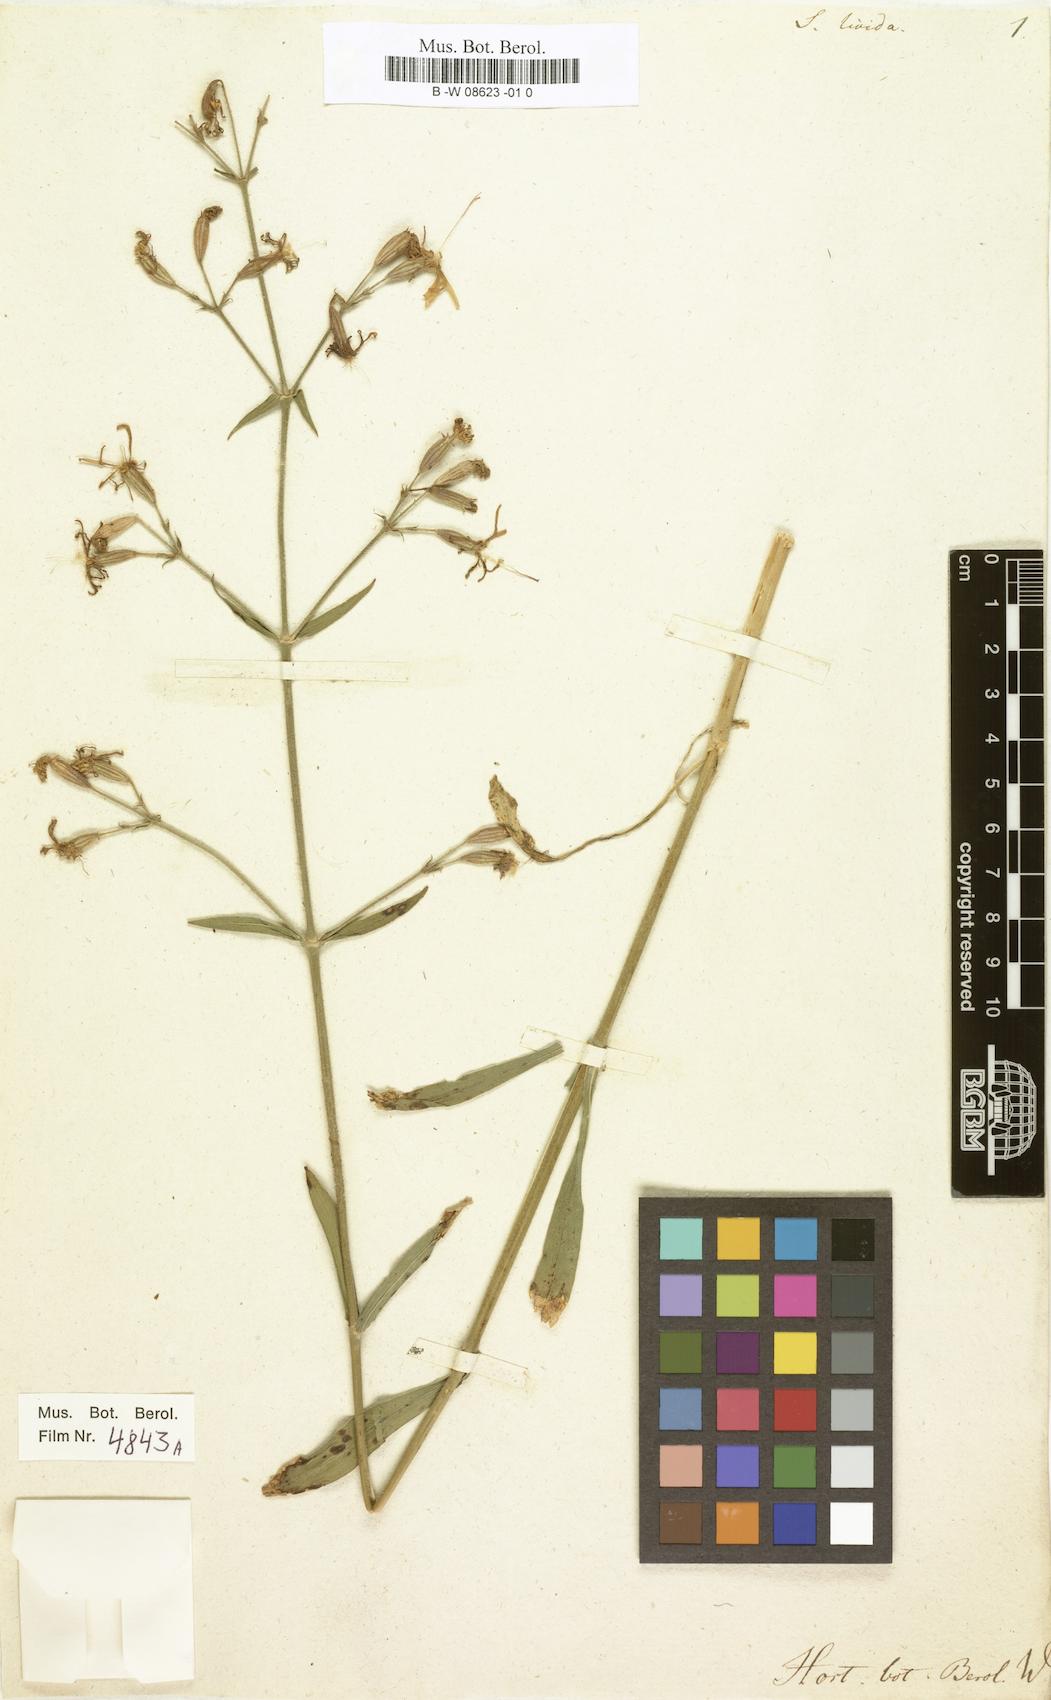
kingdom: Plantae
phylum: Tracheophyta
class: Magnoliopsida
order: Caryophyllales
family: Caryophyllaceae
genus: Silene
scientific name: Silene
